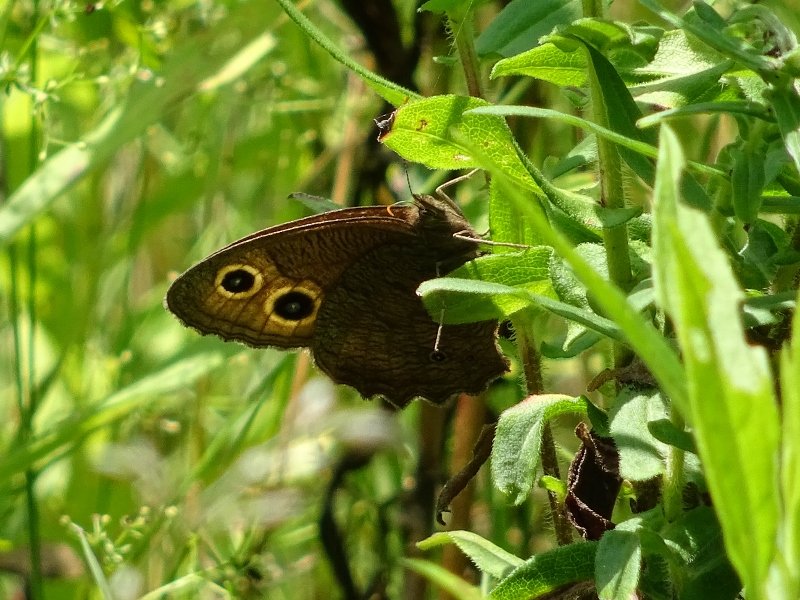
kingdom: Animalia
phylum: Arthropoda
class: Insecta
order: Lepidoptera
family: Nymphalidae
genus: Cercyonis
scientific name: Cercyonis pegala
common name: Common Wood-Nymph
